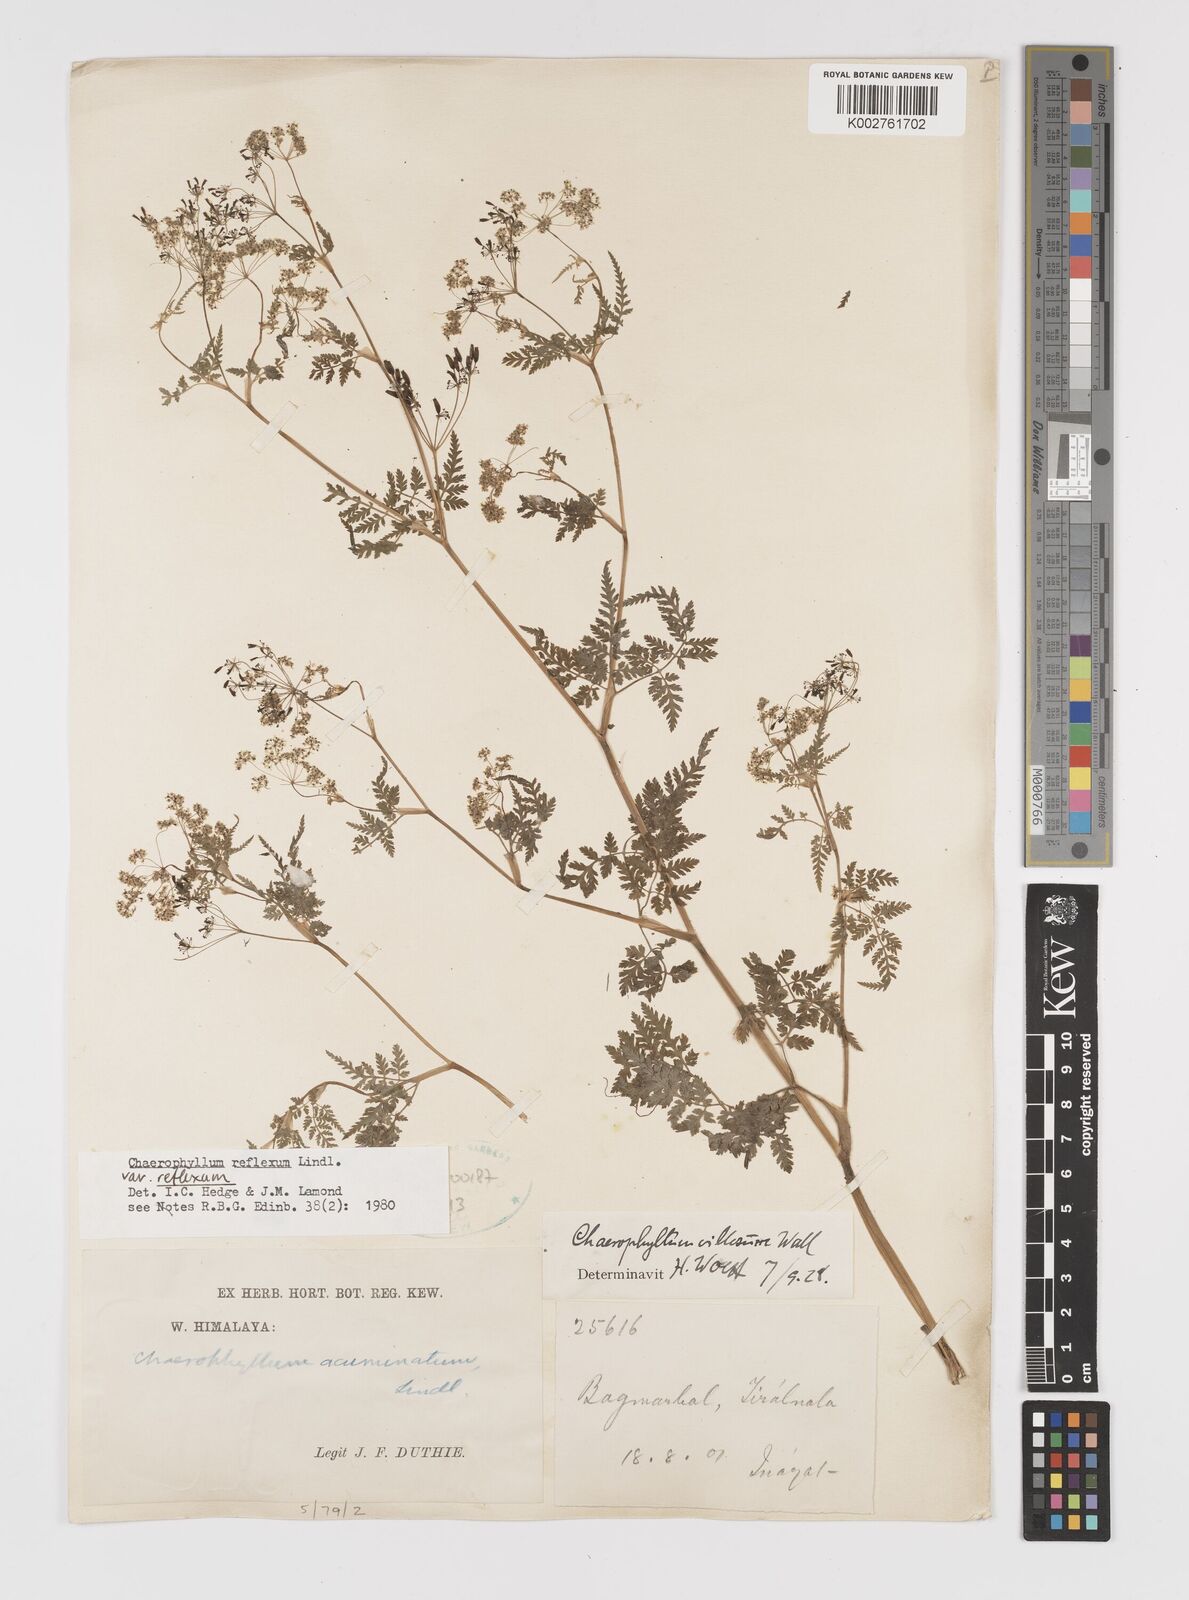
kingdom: Plantae
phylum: Tracheophyta
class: Magnoliopsida
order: Apiales
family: Apiaceae
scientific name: Apiaceae
